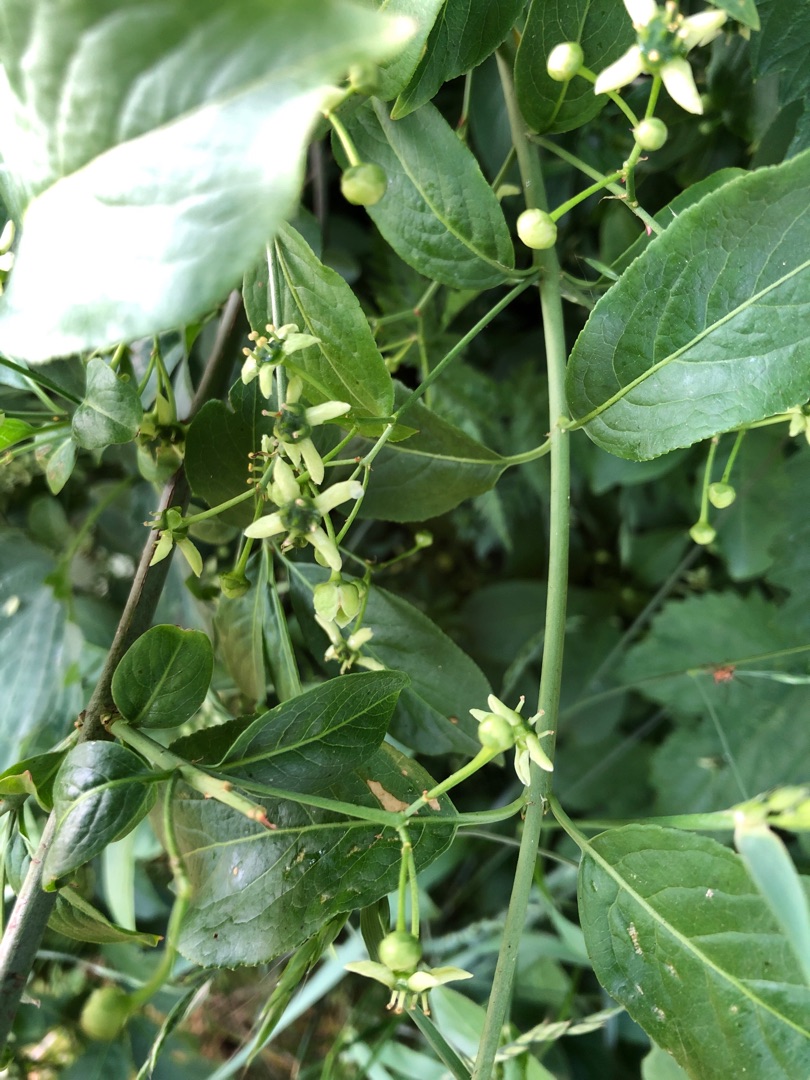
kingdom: Plantae
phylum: Tracheophyta
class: Magnoliopsida
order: Celastrales
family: Celastraceae
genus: Euonymus
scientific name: Euonymus europaeus
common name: Benved
